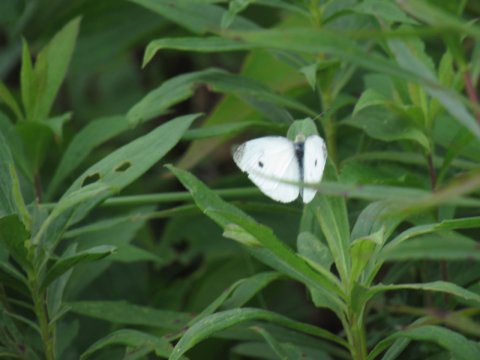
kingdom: Animalia
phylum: Arthropoda
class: Insecta
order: Lepidoptera
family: Pieridae
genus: Pieris
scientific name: Pieris rapae
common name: Cabbage White
